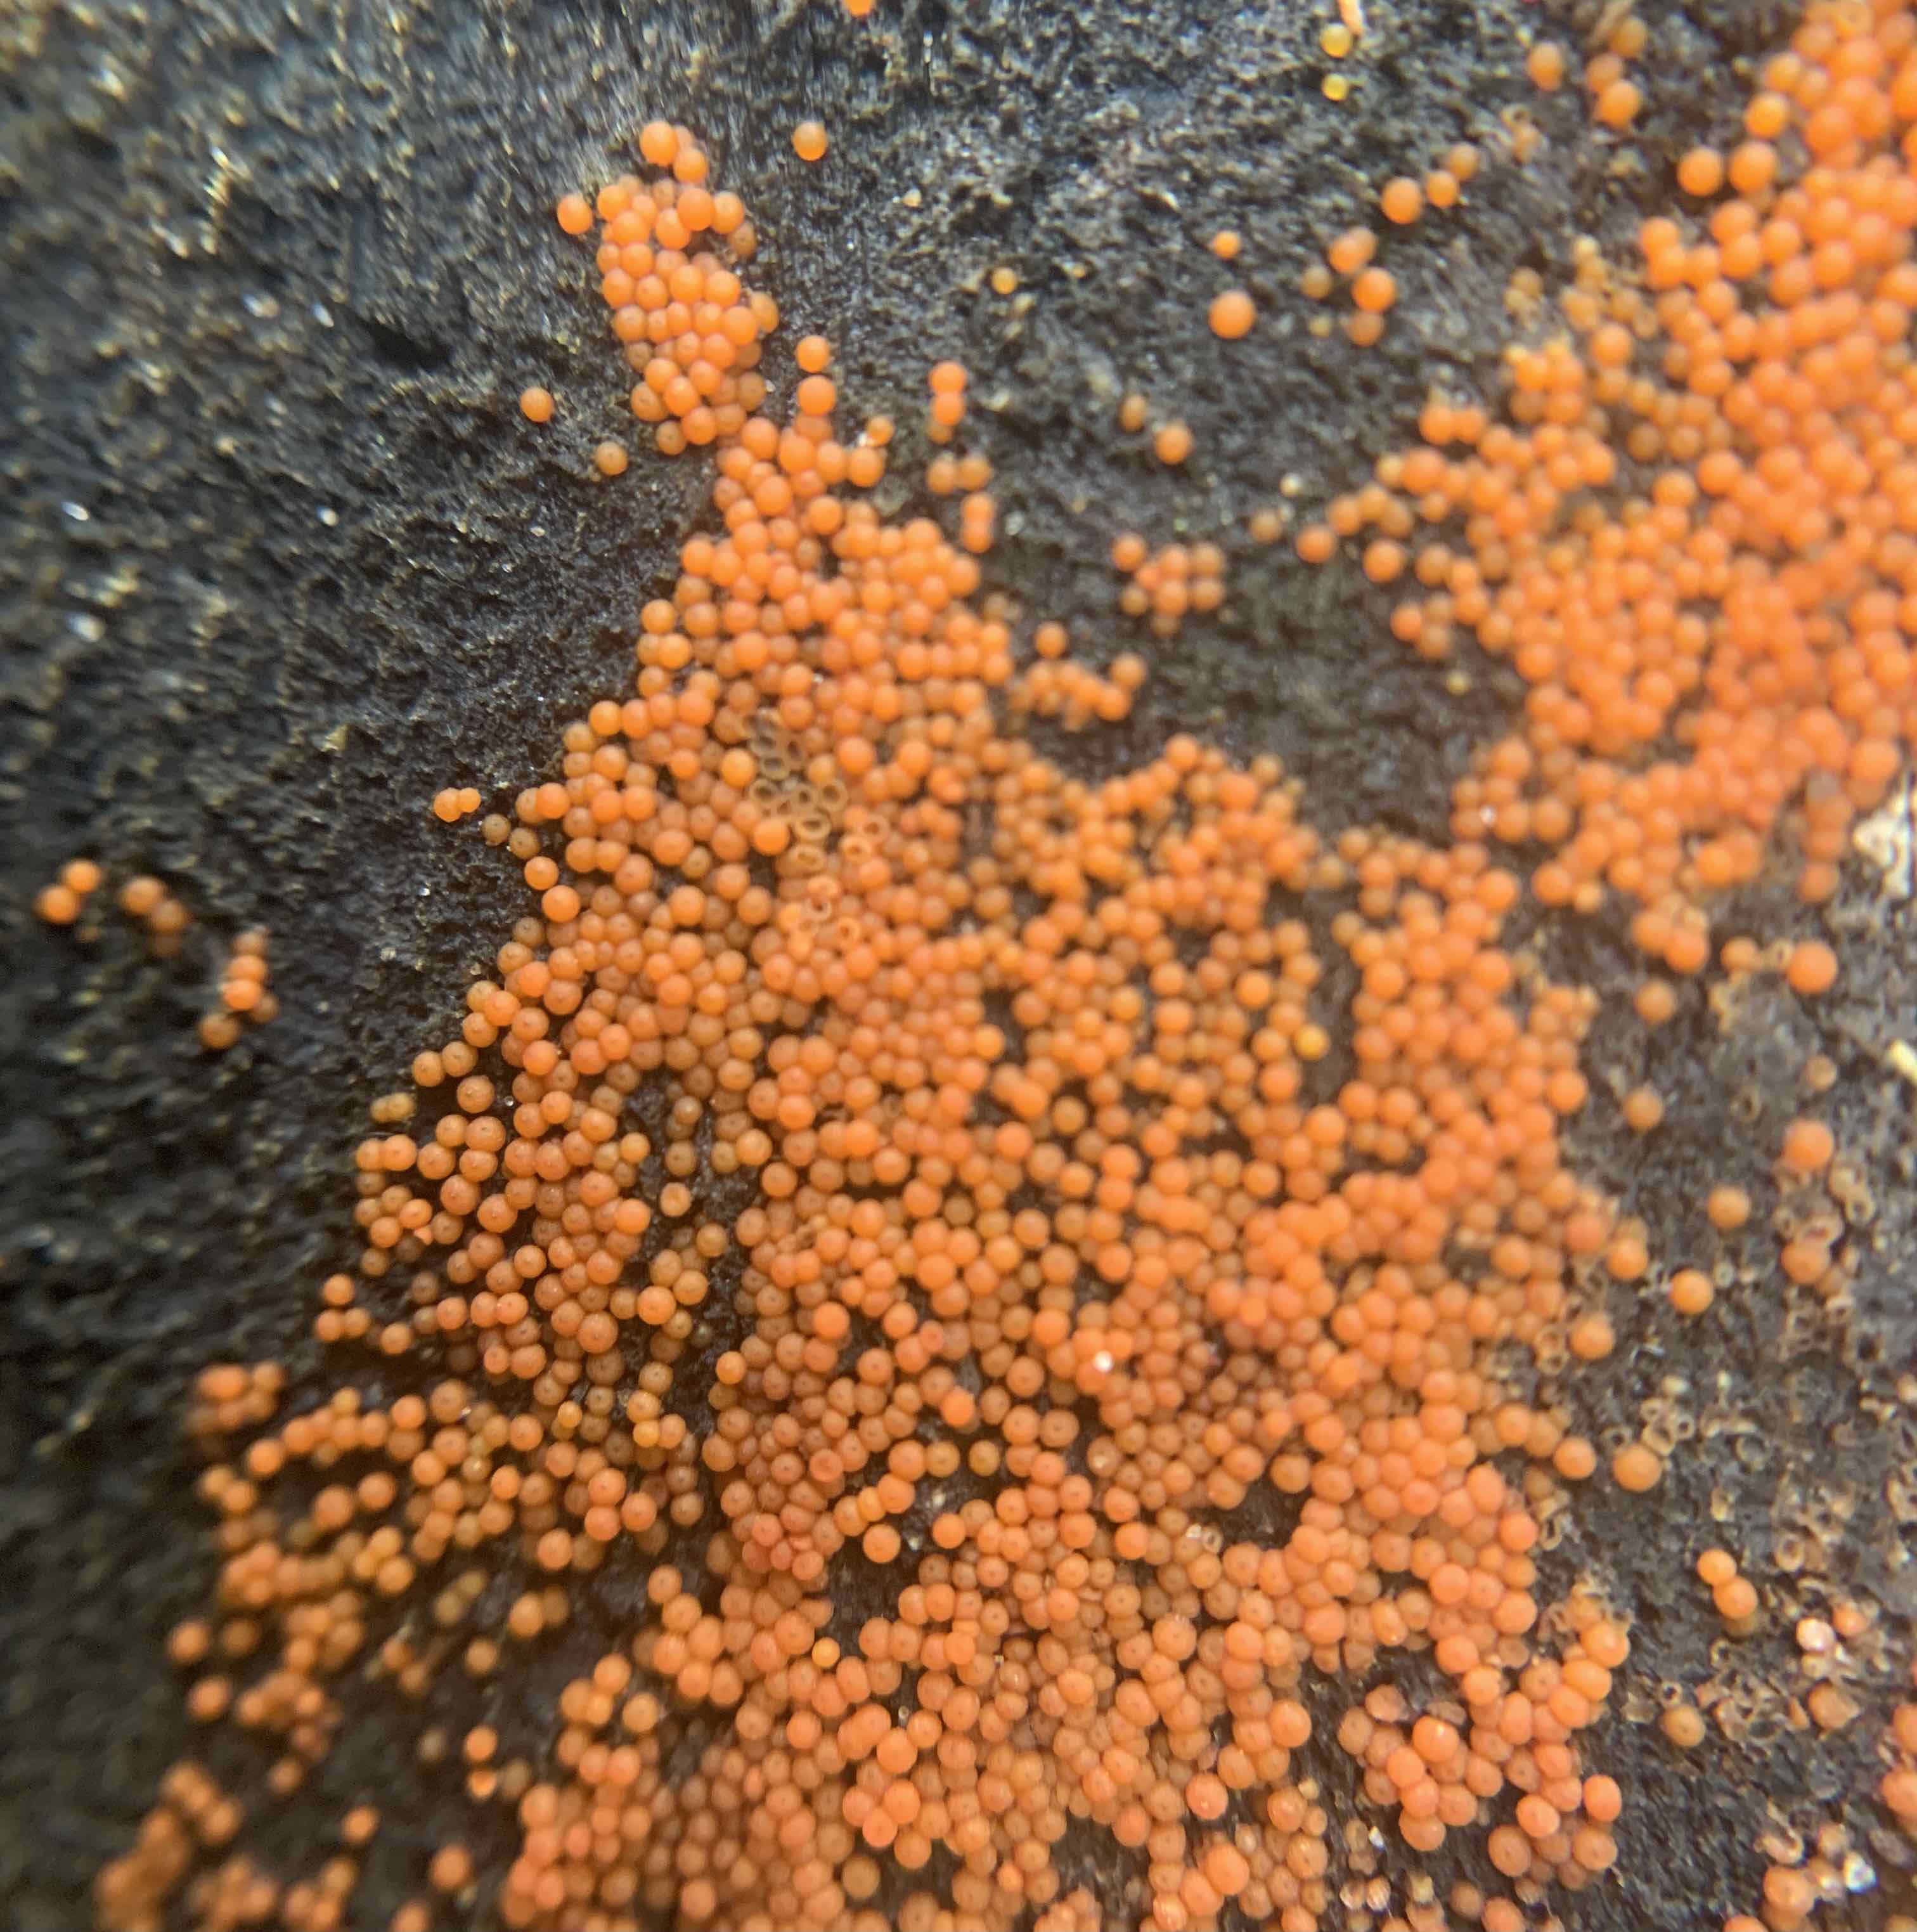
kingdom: Fungi
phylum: Ascomycota
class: Sordariomycetes
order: Hypocreales
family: Nectriaceae
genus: Hydropisphaera
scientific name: Hydropisphaera peziza
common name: skålformet gyldenkerne
